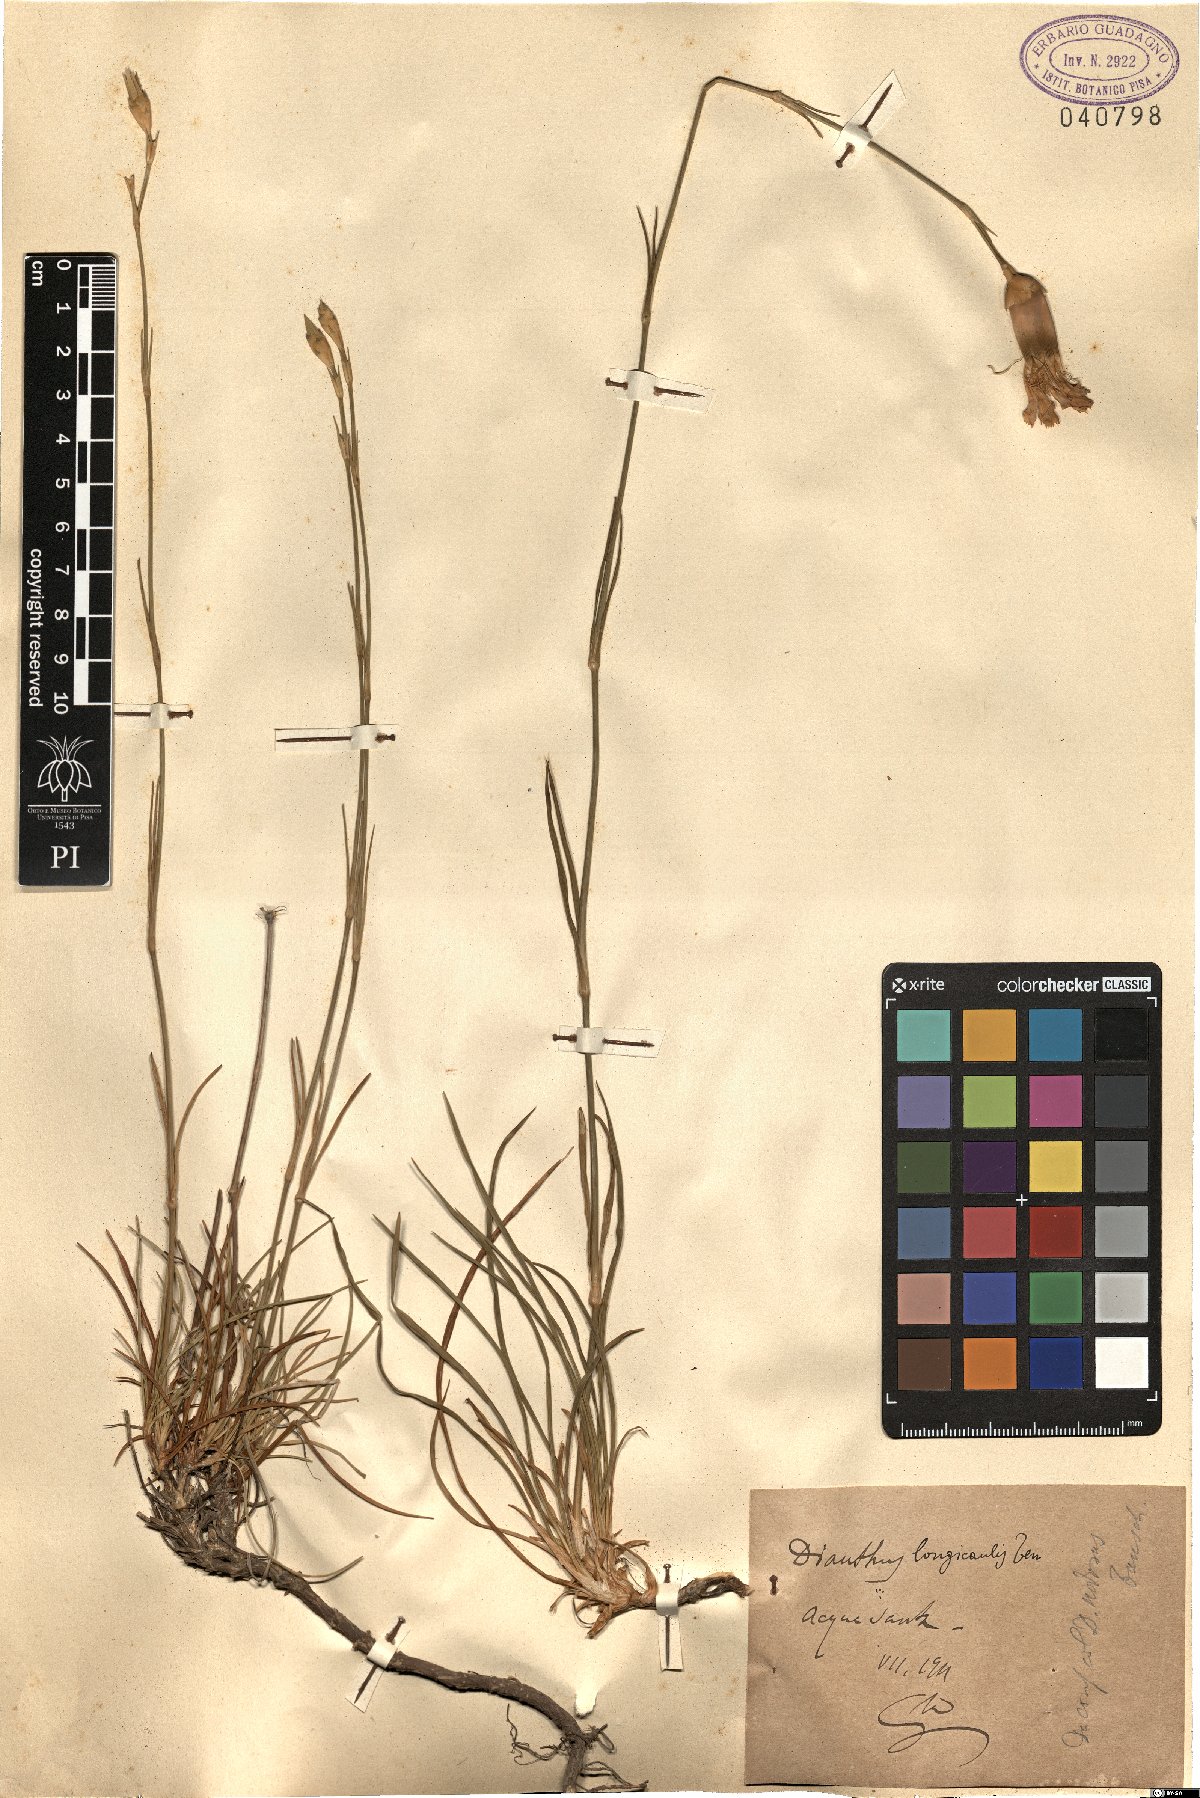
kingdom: Plantae
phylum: Tracheophyta
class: Magnoliopsida
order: Caryophyllales
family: Caryophyllaceae
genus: Dianthus
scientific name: Dianthus virgineus
